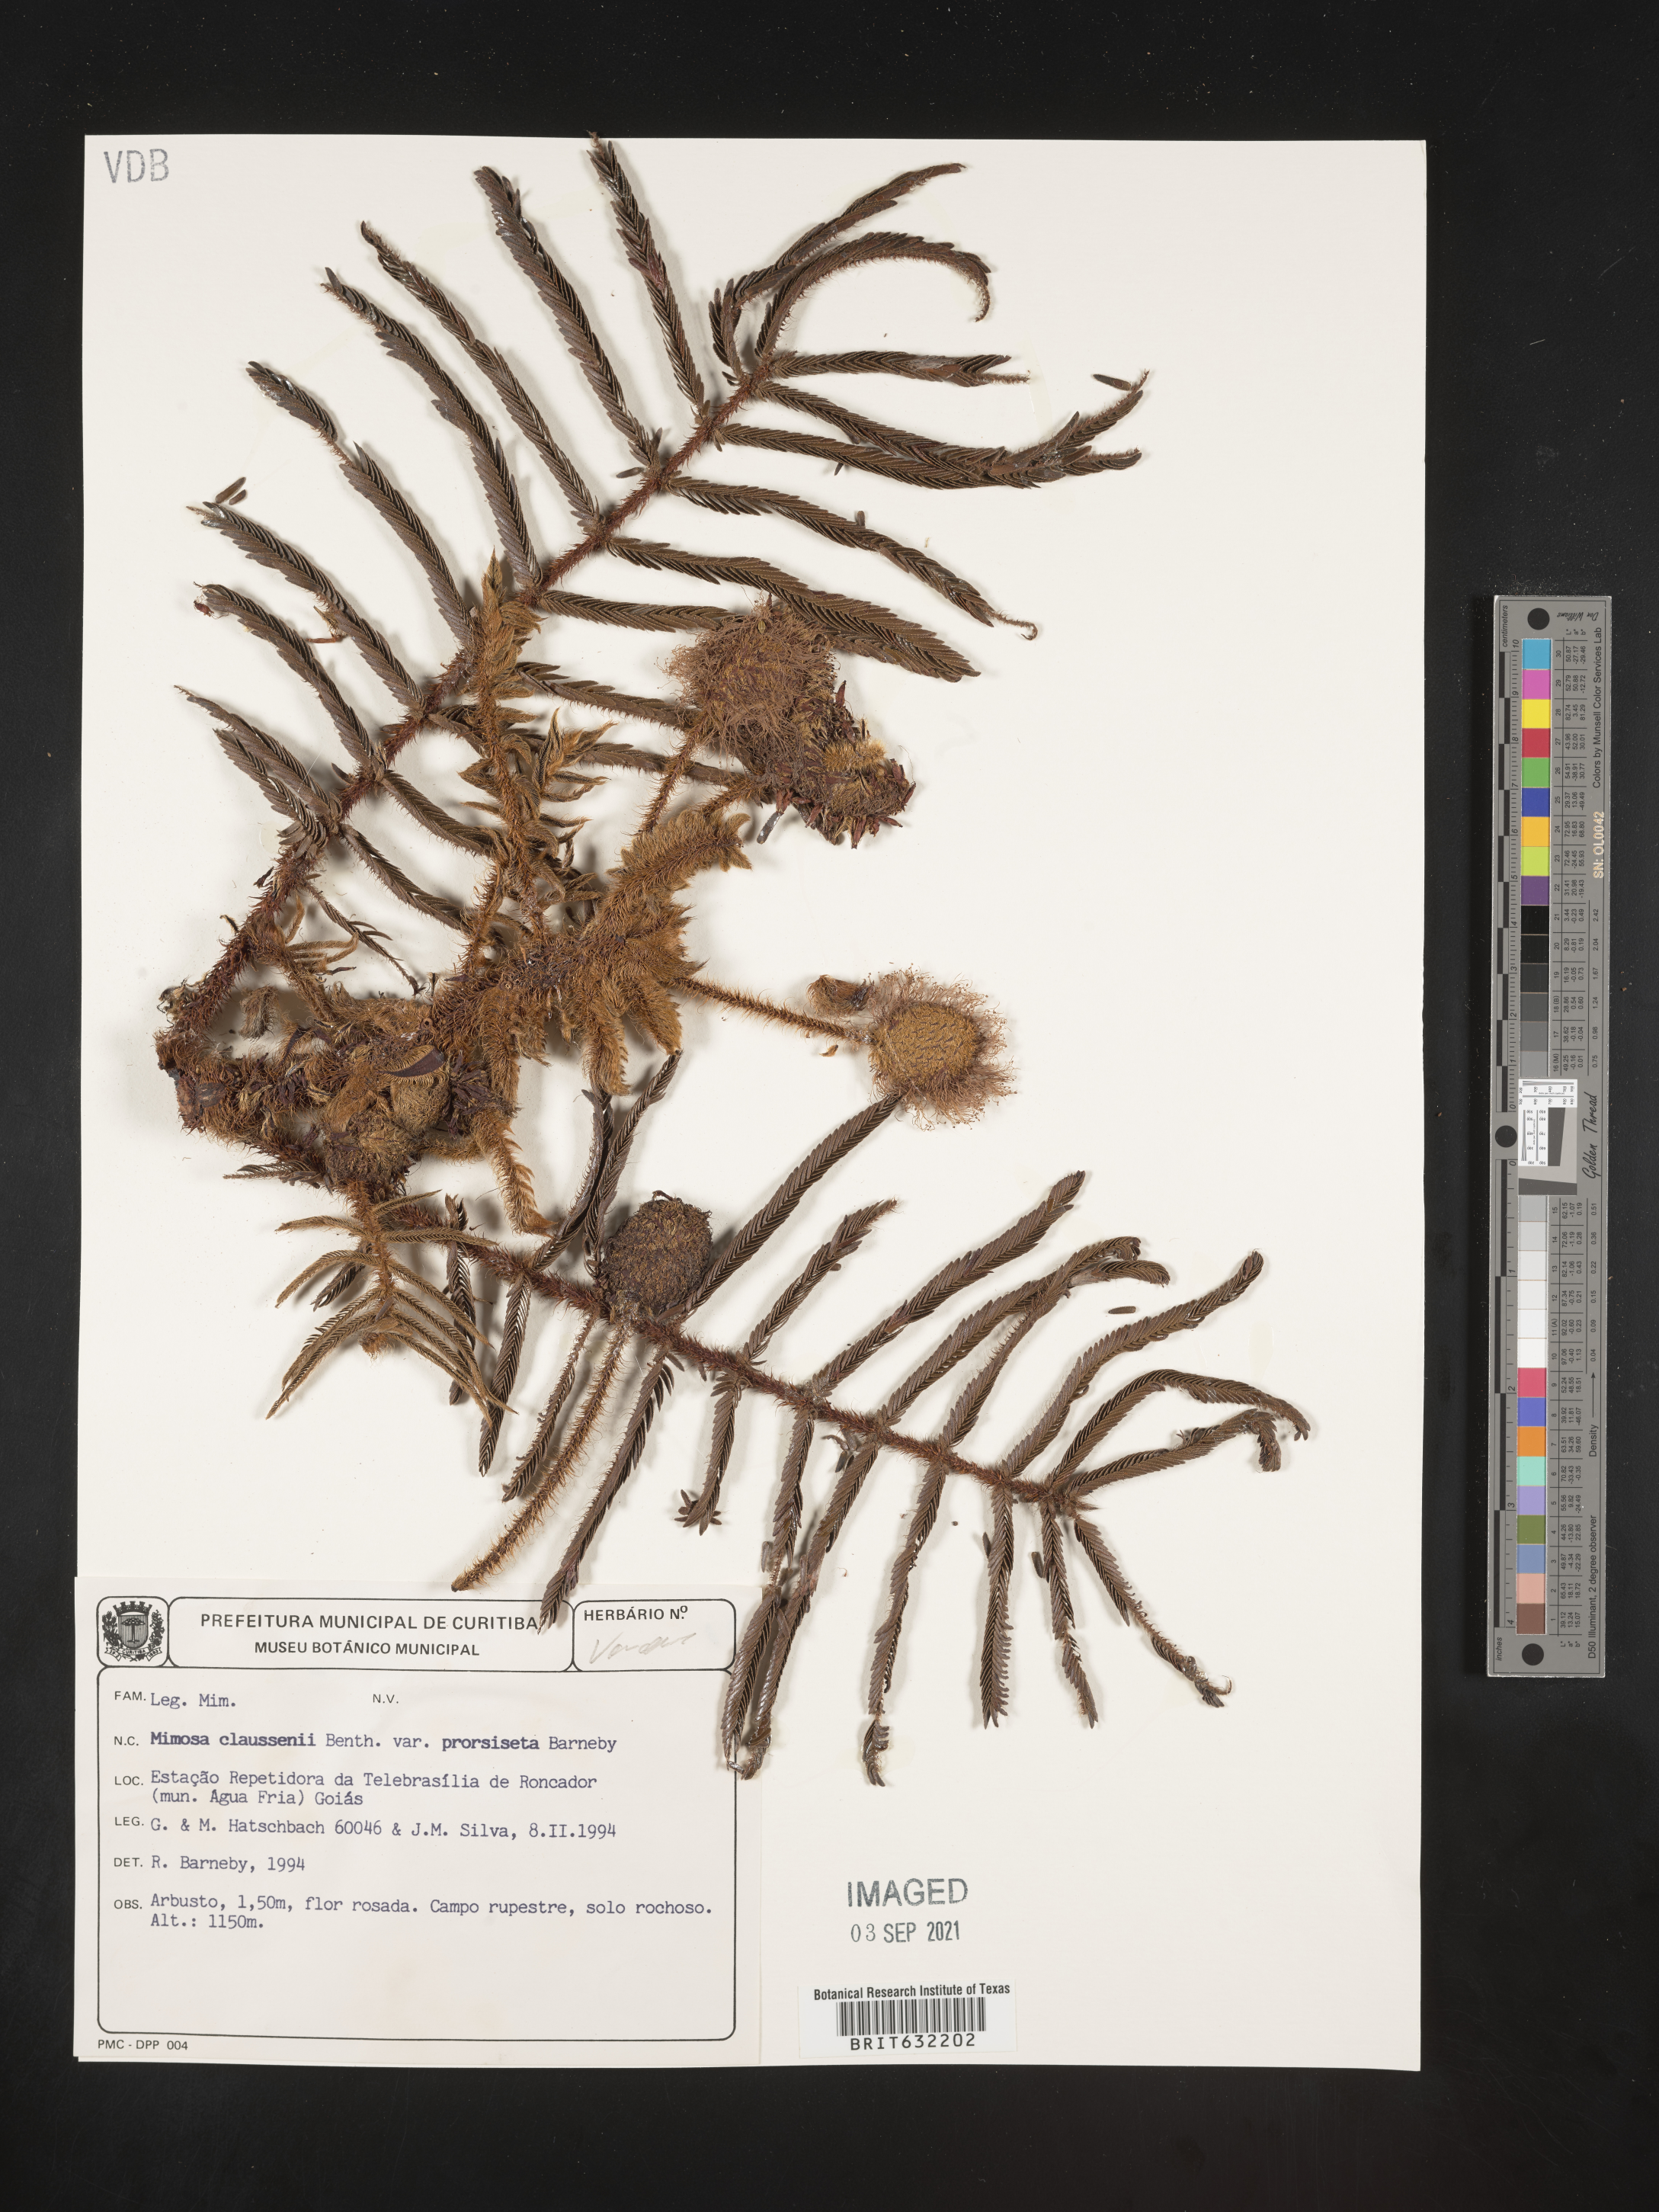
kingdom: Plantae
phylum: Tracheophyta
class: Magnoliopsida
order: Fabales
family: Fabaceae
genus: Mimosa
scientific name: Mimosa
